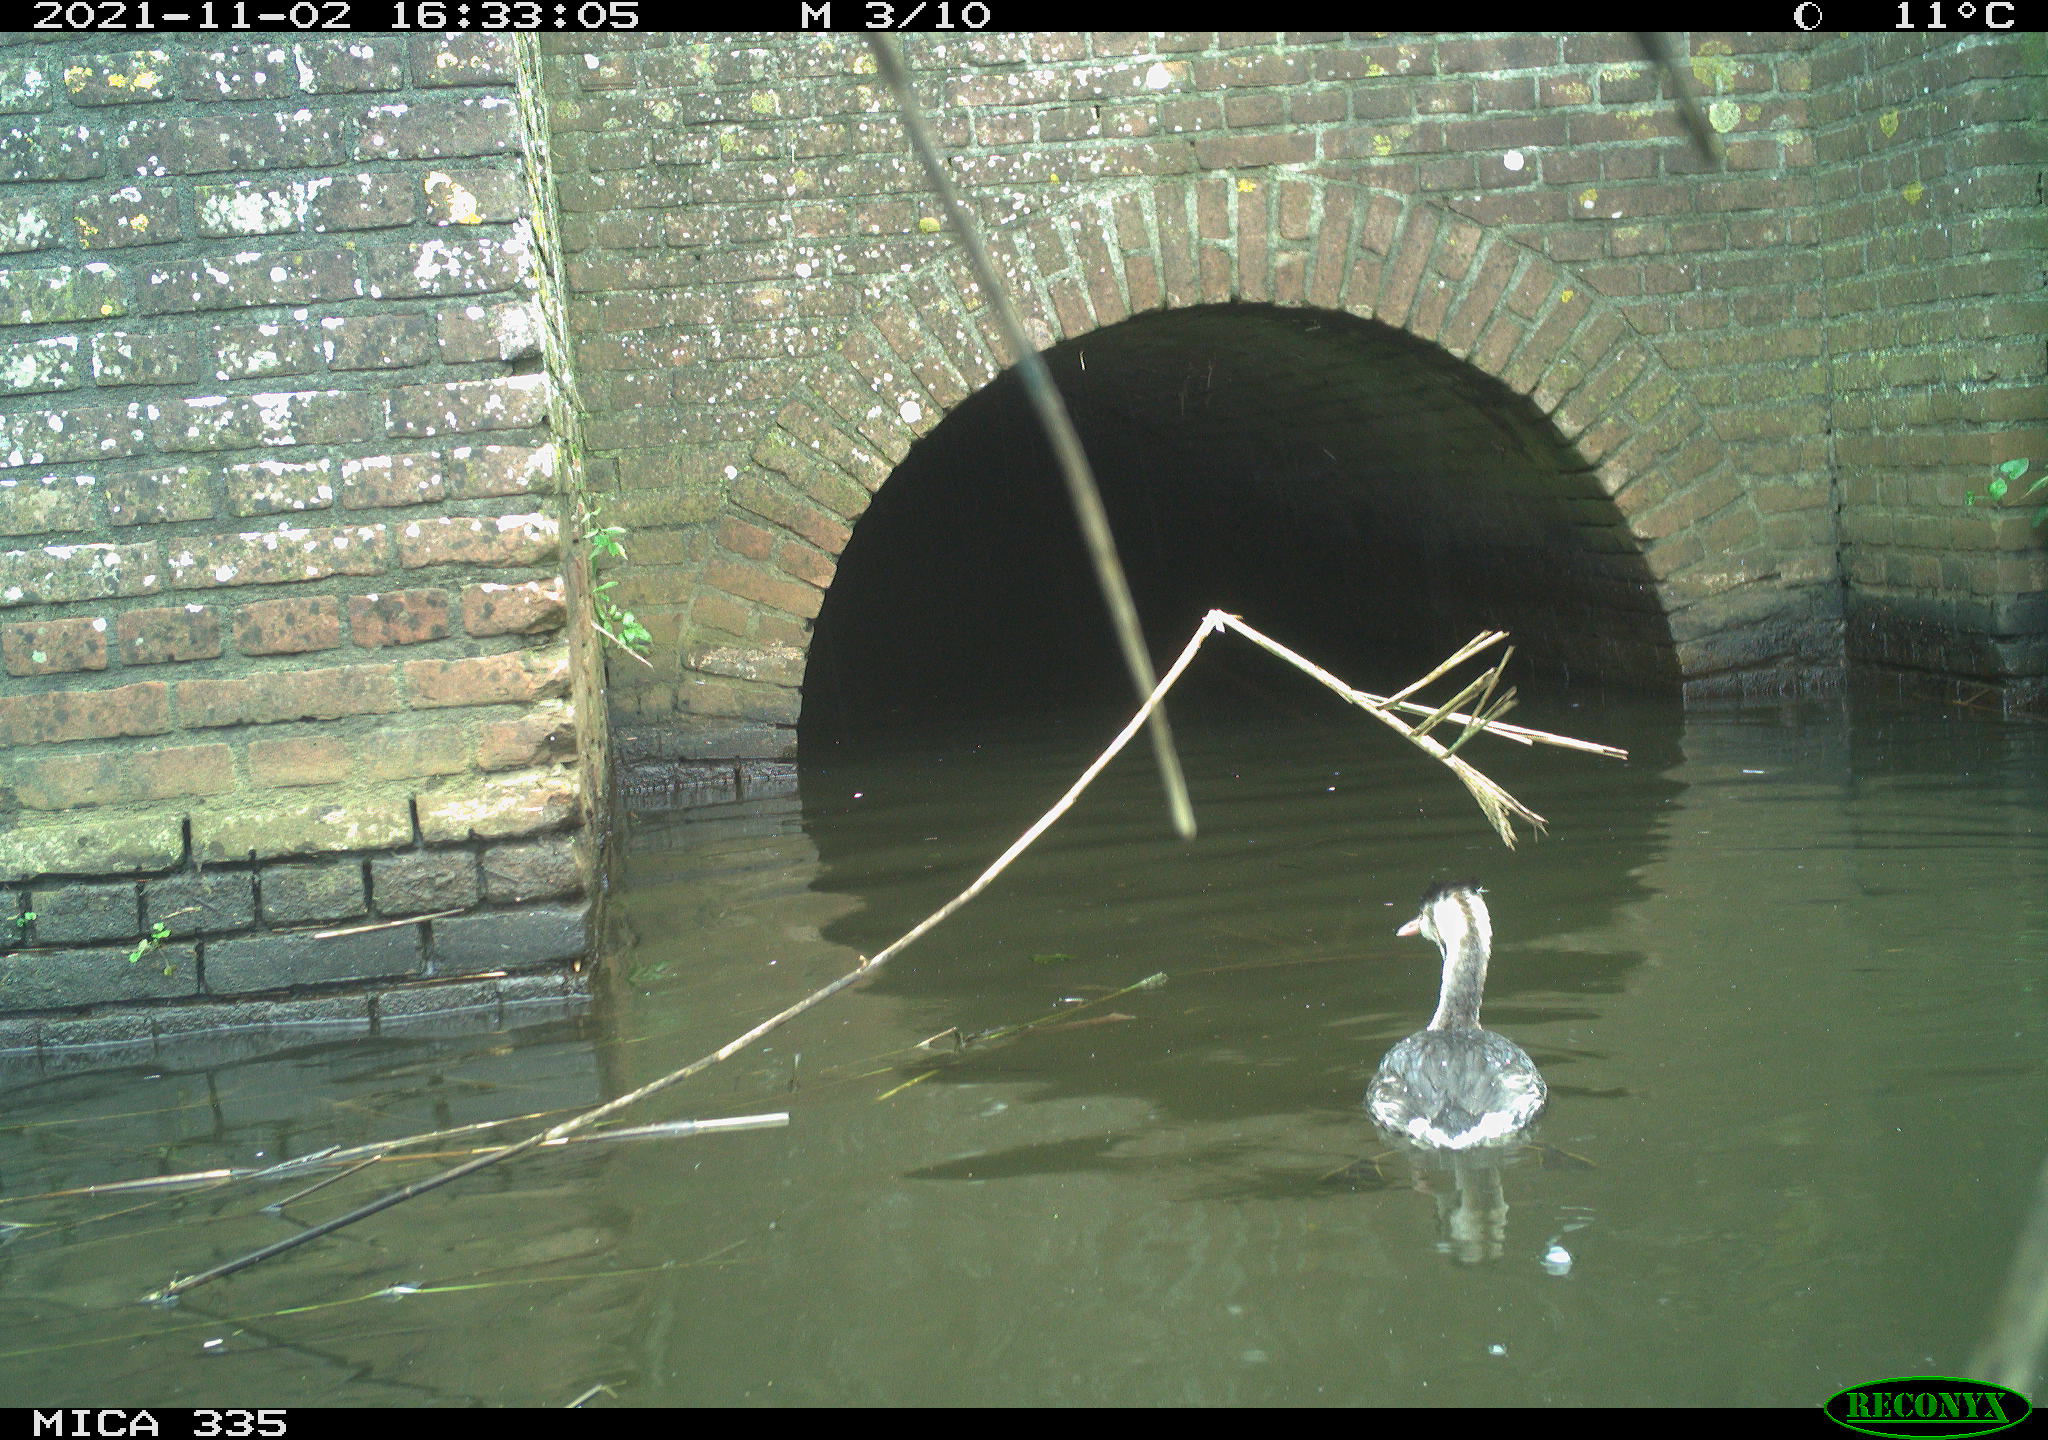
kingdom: Animalia
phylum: Chordata
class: Aves
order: Podicipediformes
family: Podicipedidae
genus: Podiceps
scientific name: Podiceps cristatus
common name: Great crested grebe
